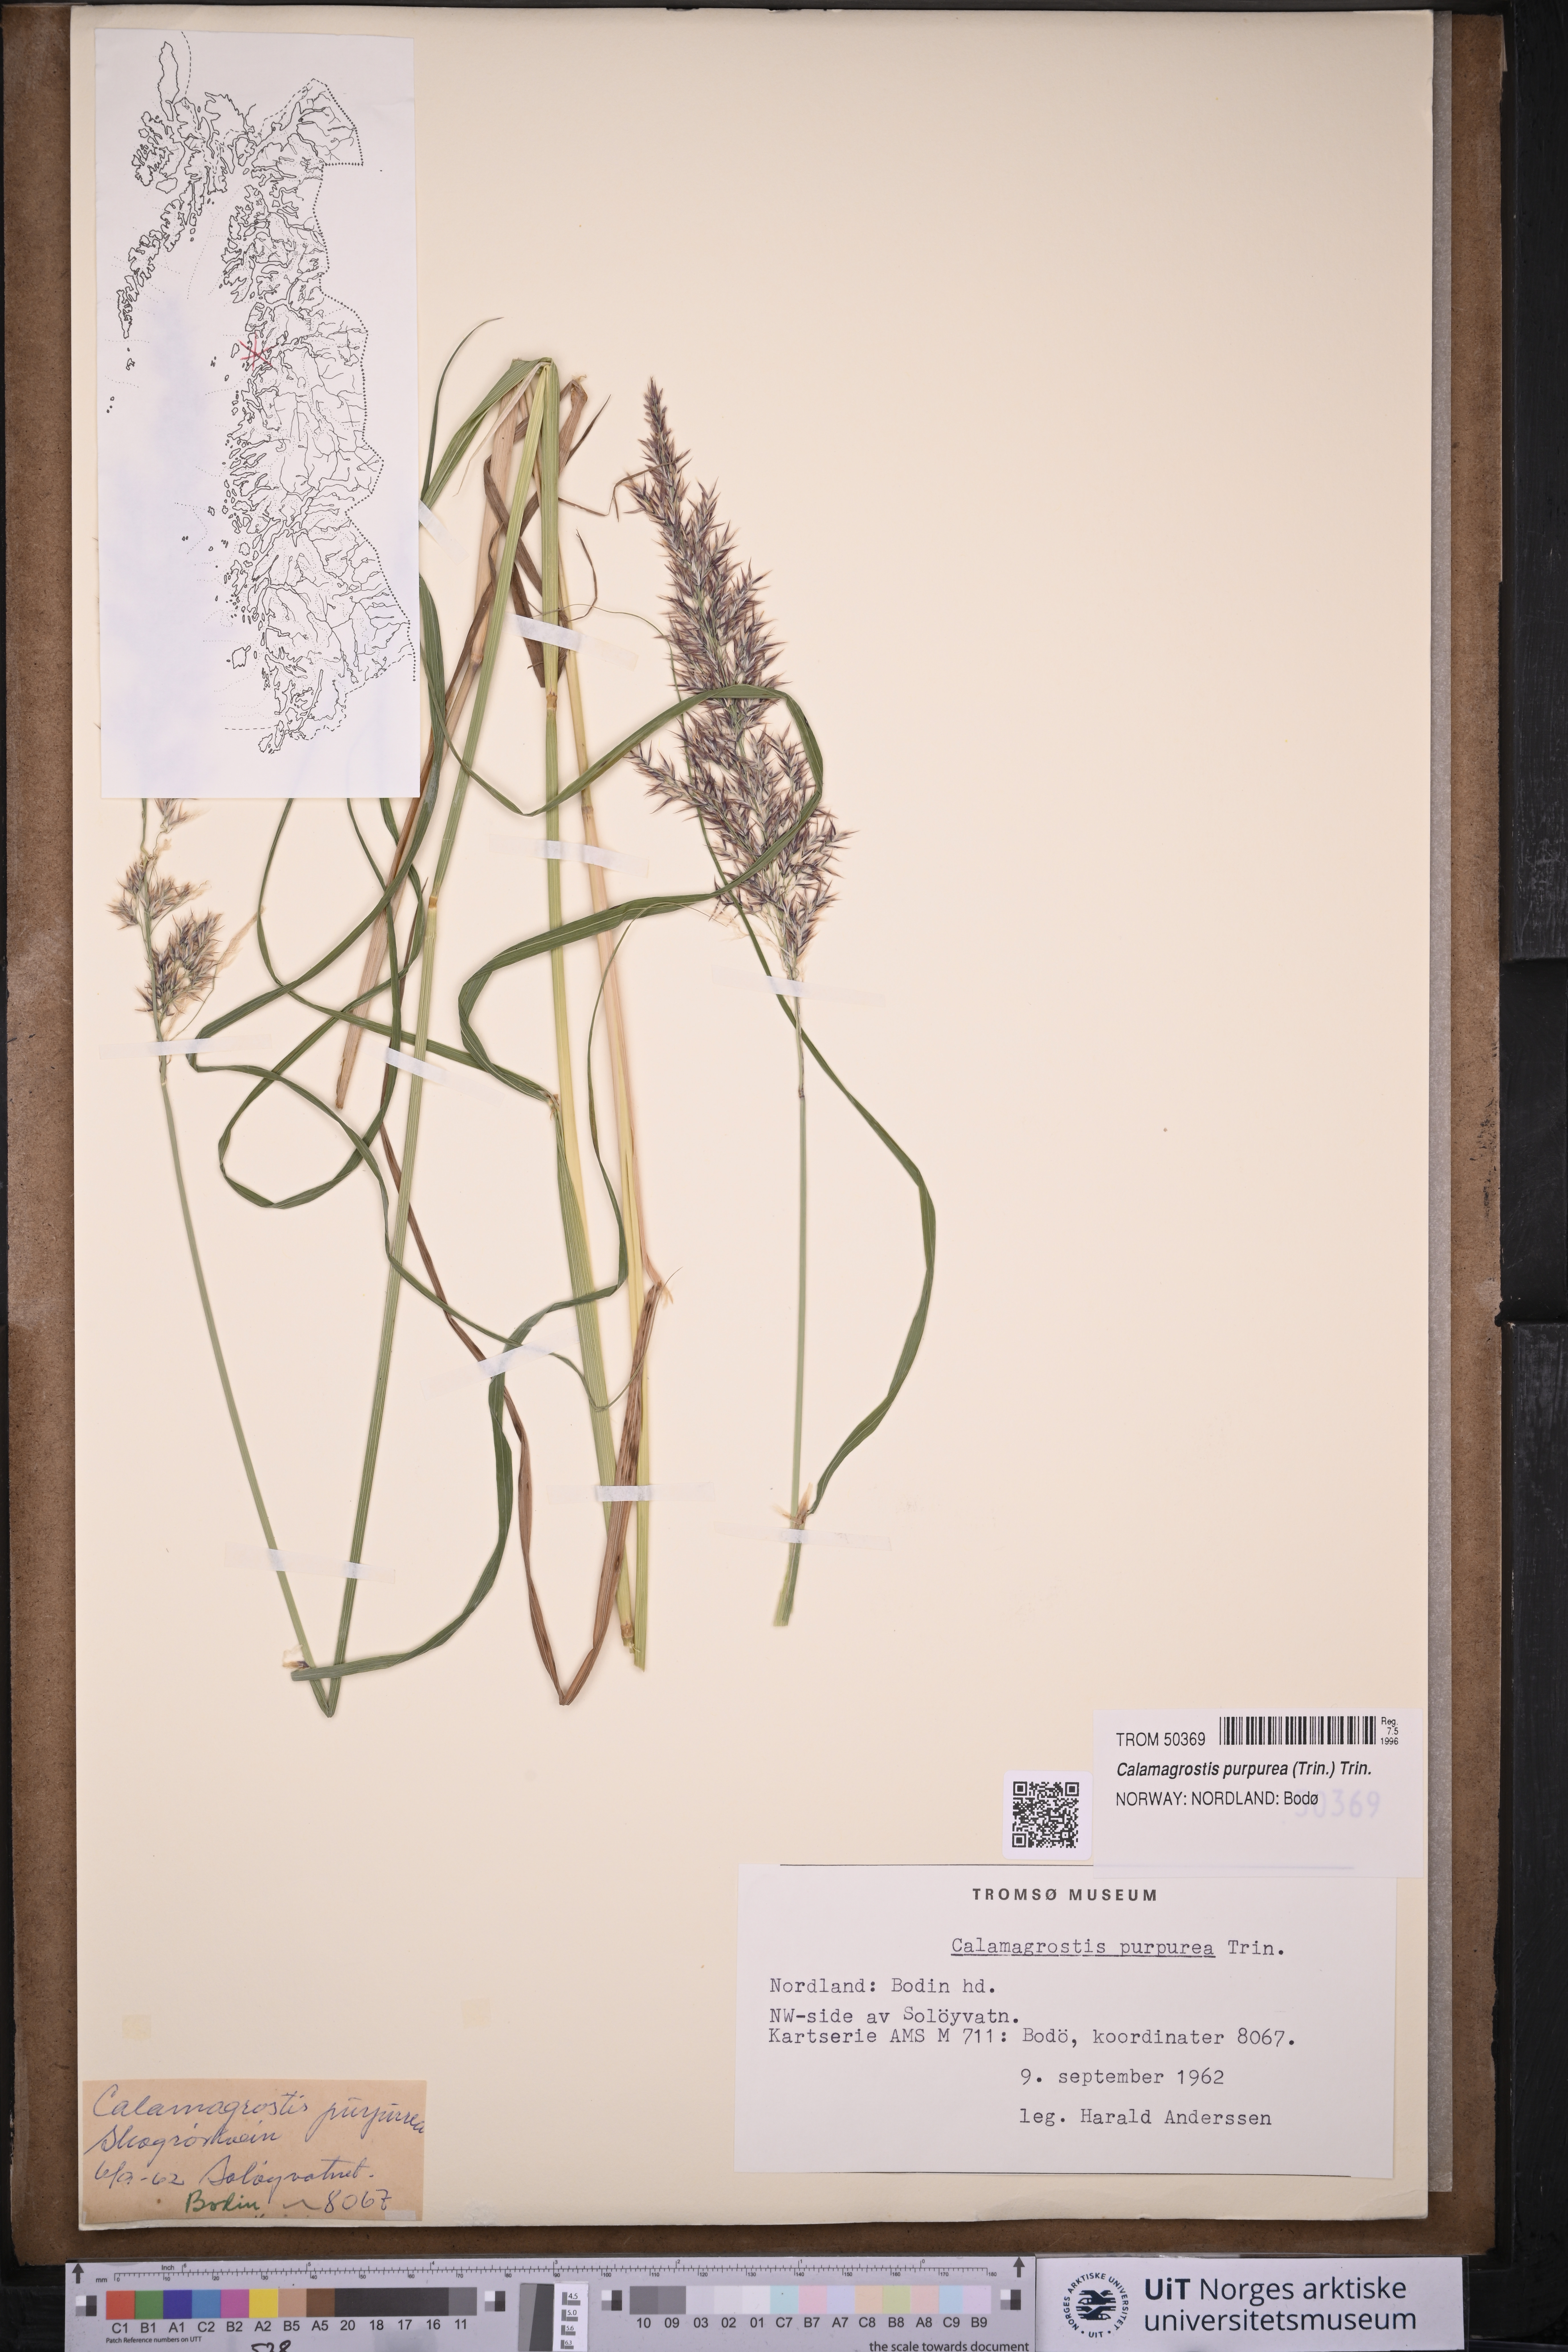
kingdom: Plantae
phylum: Tracheophyta
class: Liliopsida
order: Poales
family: Poaceae
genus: Calamagrostis
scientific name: Calamagrostis purpurea
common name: Scandinavian small-reed
